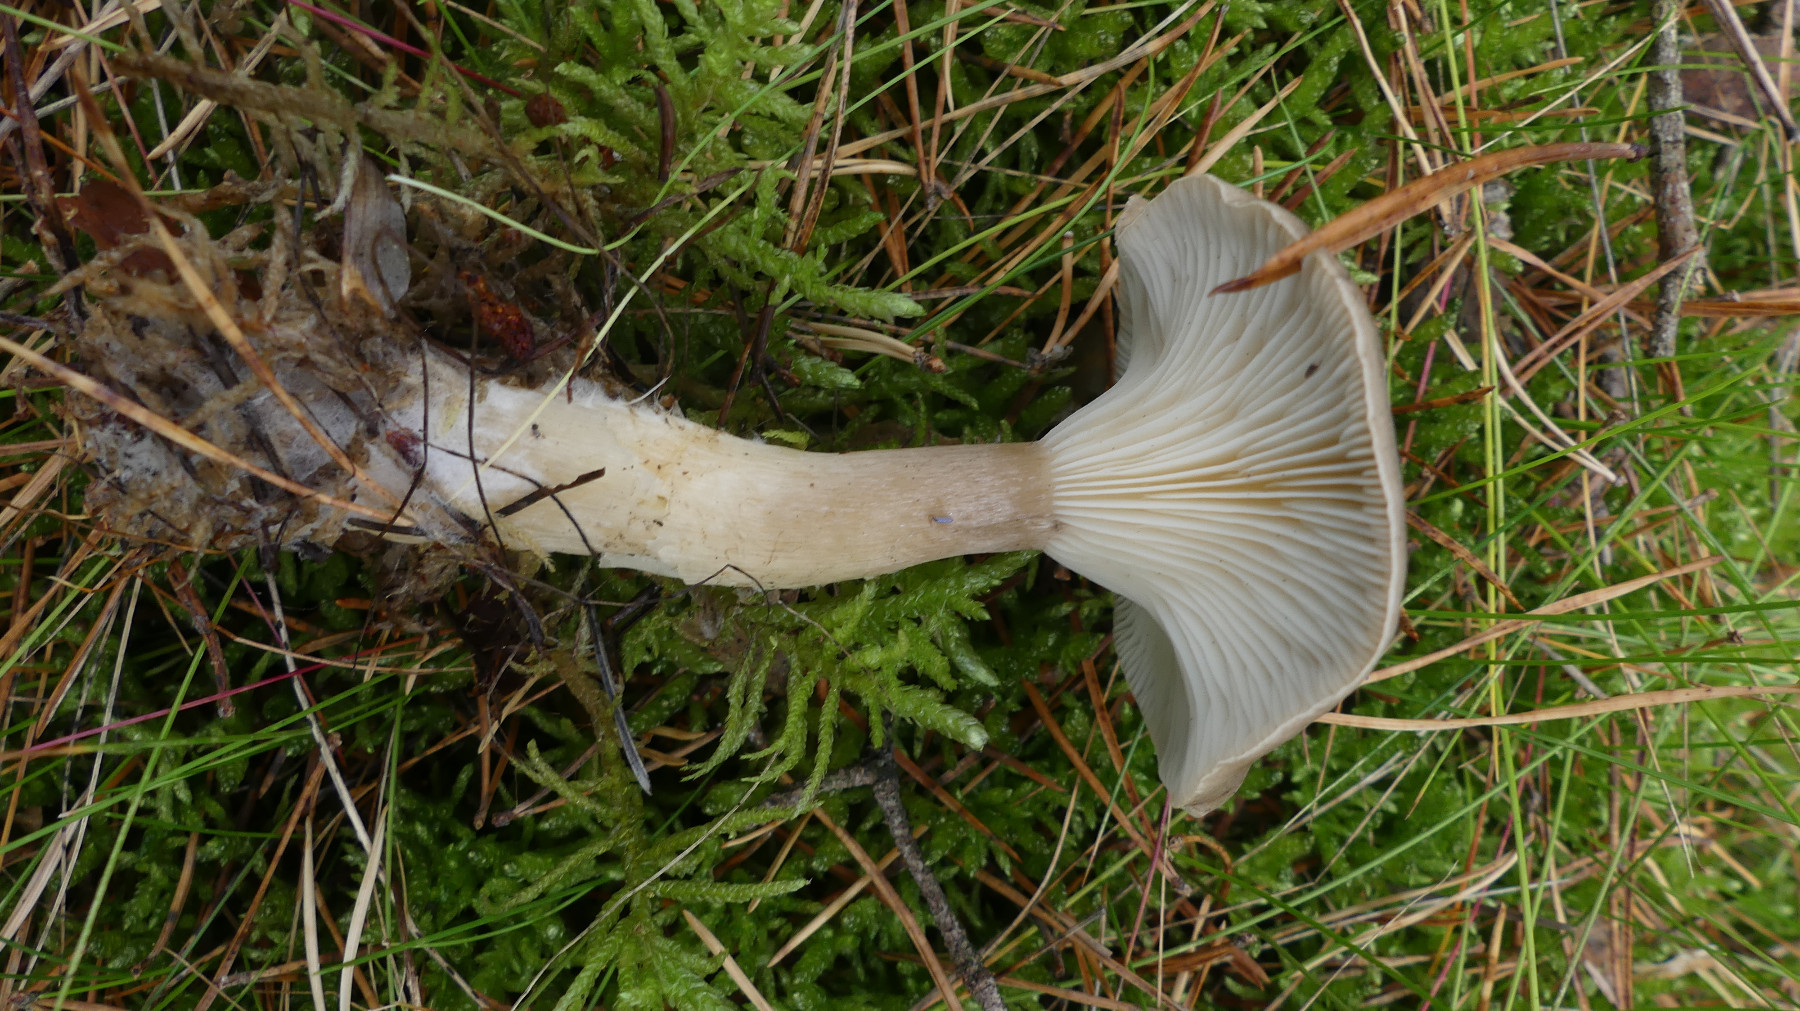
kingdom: Fungi
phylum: Basidiomycota
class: Agaricomycetes
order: Agaricales
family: Hygrophoraceae
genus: Ampulloclitocybe
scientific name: Ampulloclitocybe clavipes
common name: køllefod
